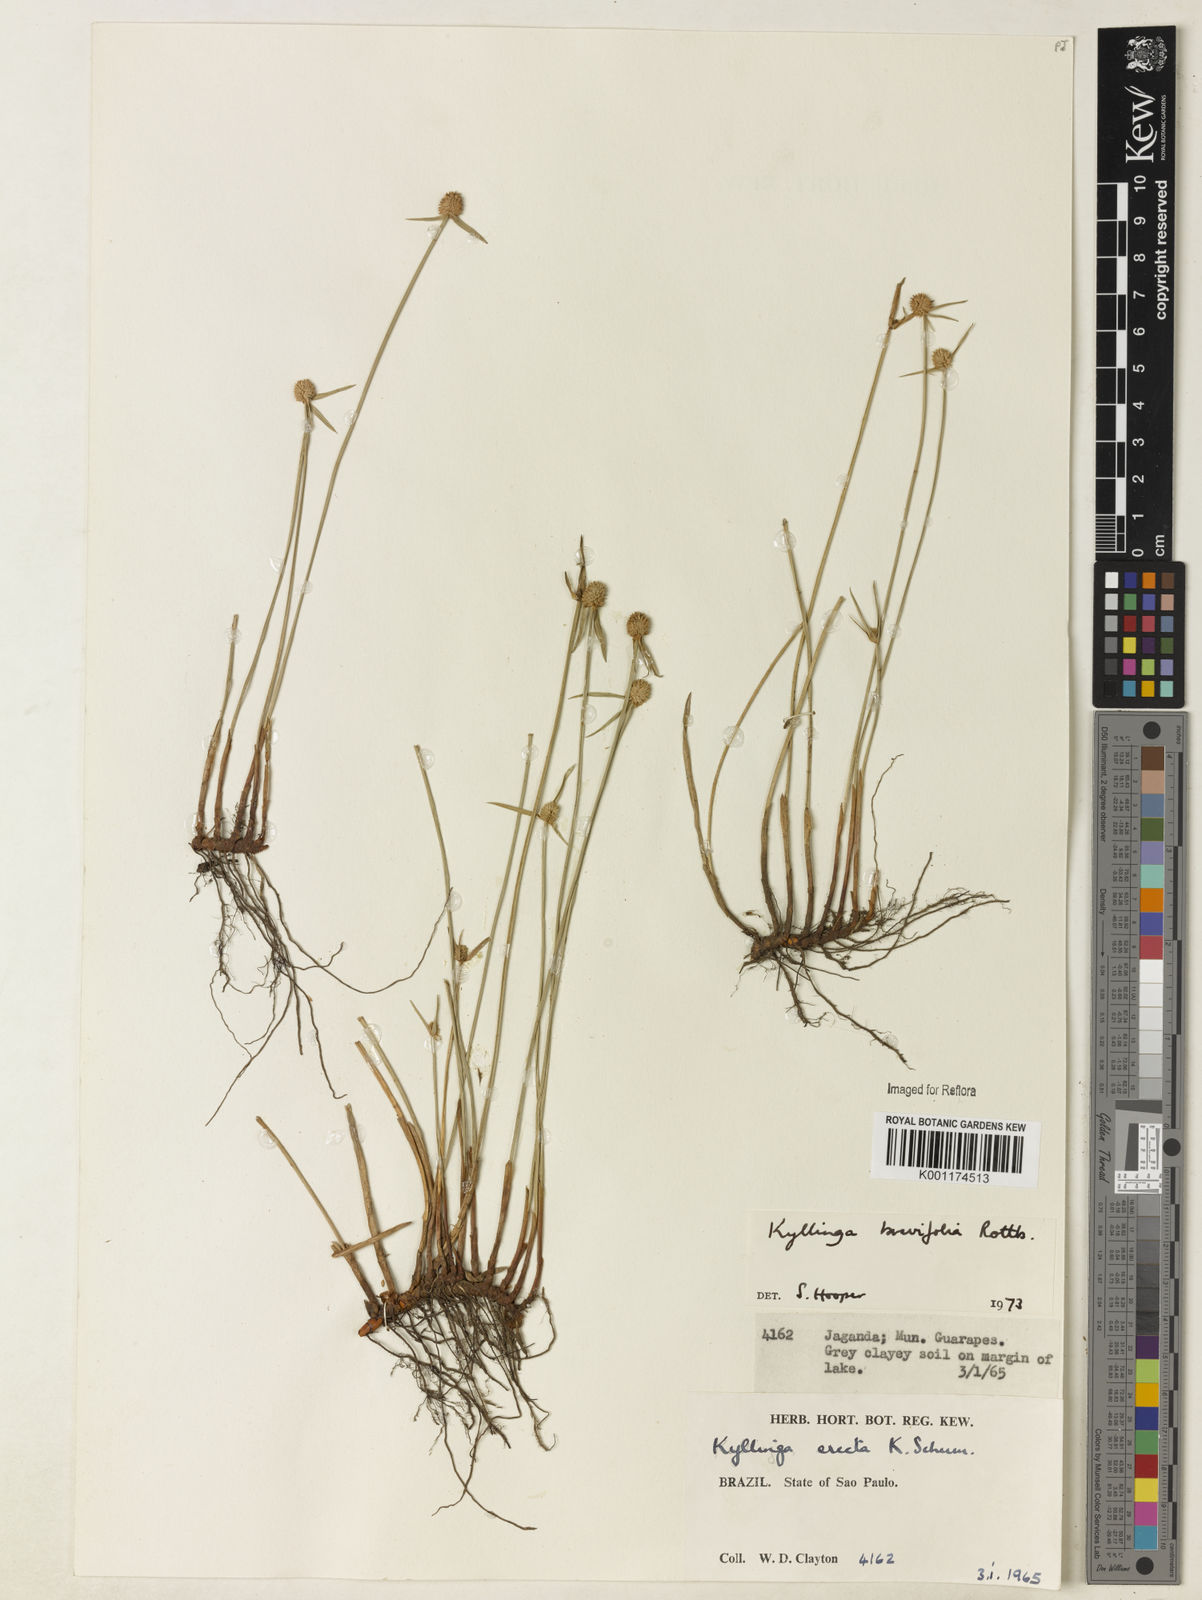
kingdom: Plantae
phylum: Tracheophyta
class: Liliopsida
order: Poales
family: Cyperaceae
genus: Cyperus
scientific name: Cyperus brevifolius
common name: Globe kyllinga
